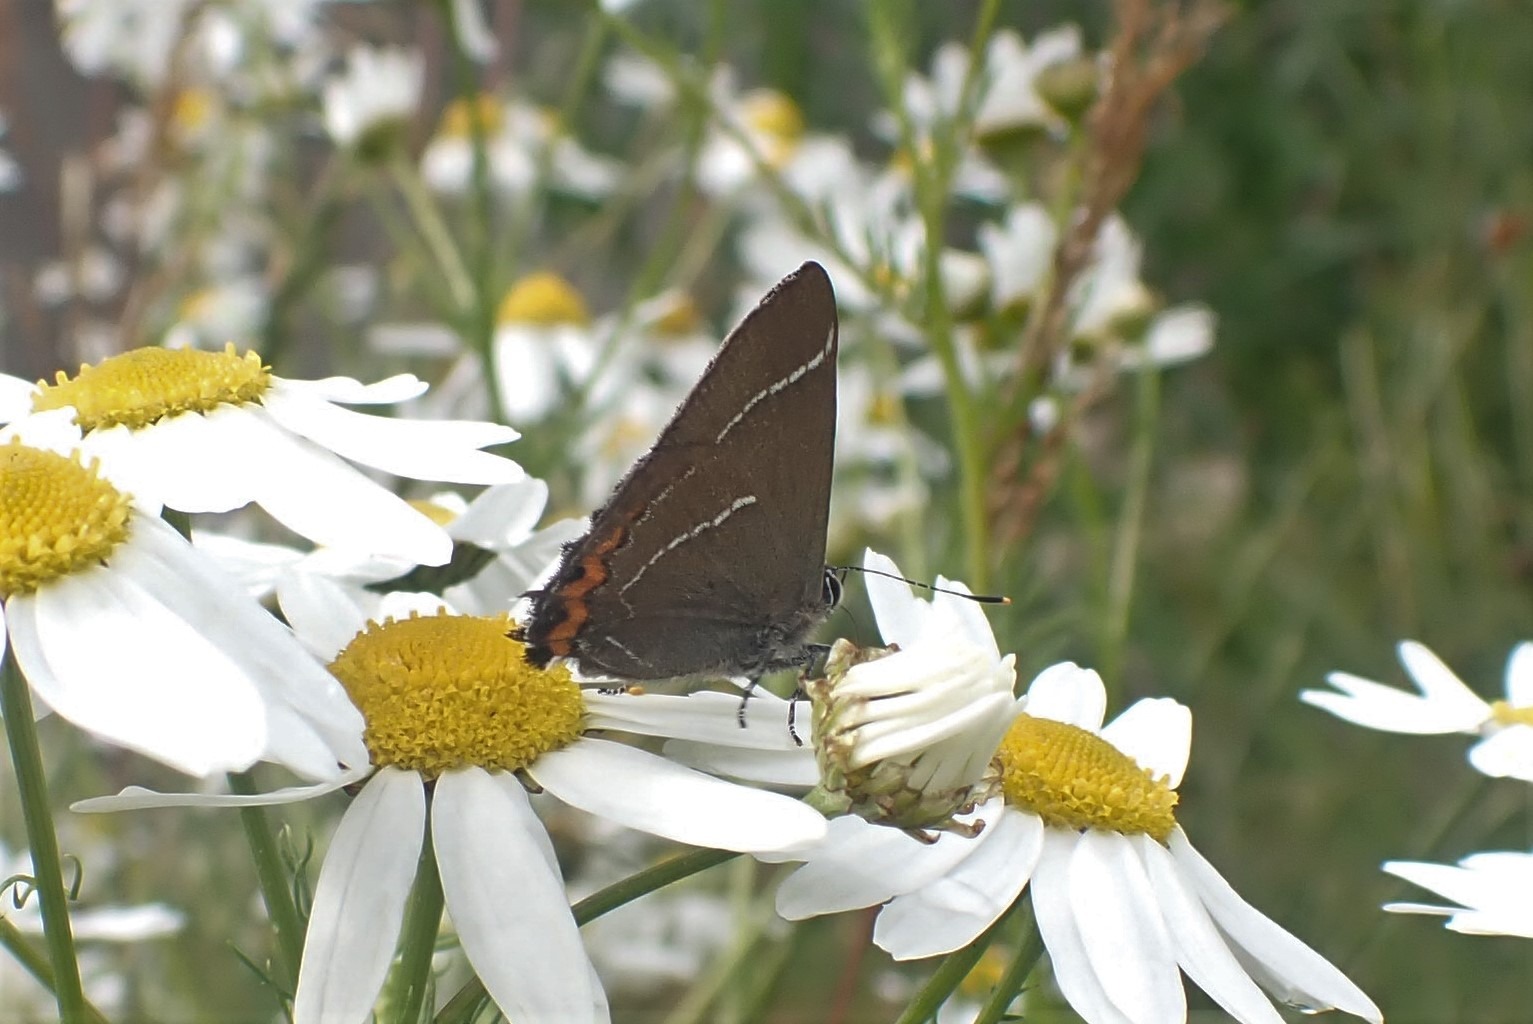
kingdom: Animalia
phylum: Arthropoda
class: Insecta
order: Lepidoptera
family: Lycaenidae
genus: Satyrium
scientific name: Satyrium w-album
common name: Det hvide W
